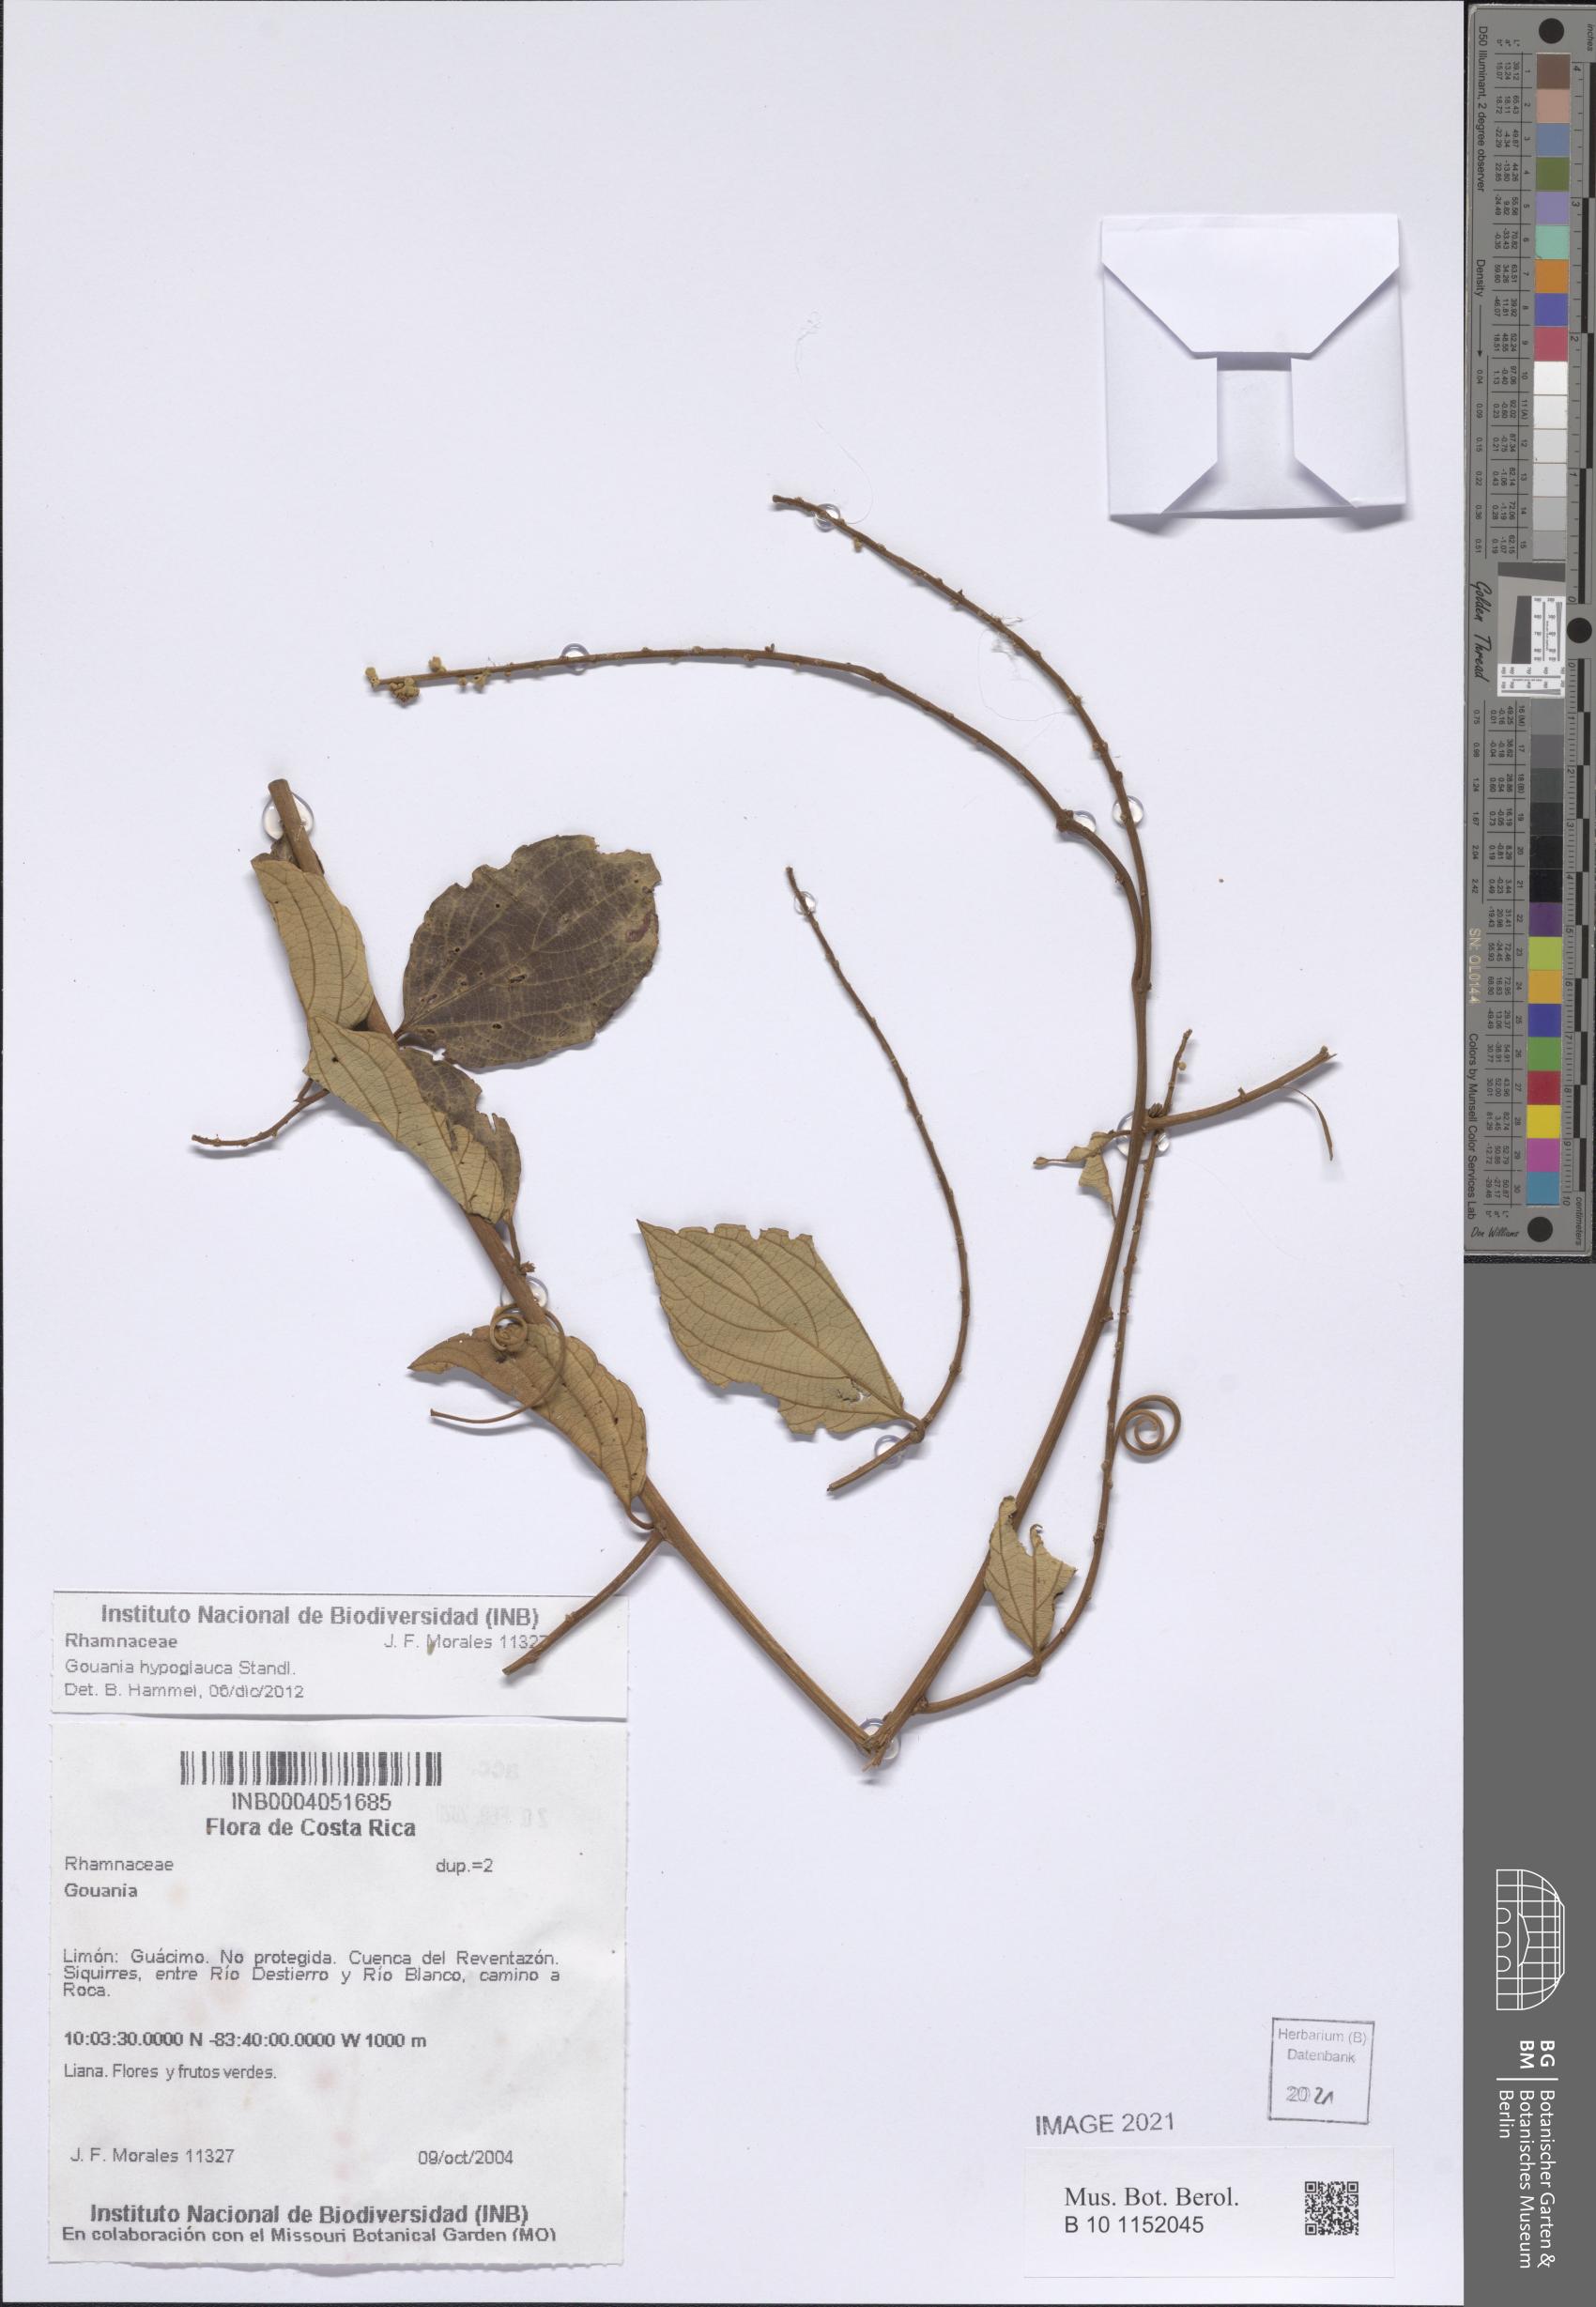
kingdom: Plantae
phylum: Tracheophyta
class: Magnoliopsida
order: Rosales
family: Rhamnaceae
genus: Gouania
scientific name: Gouania hypoglauca
